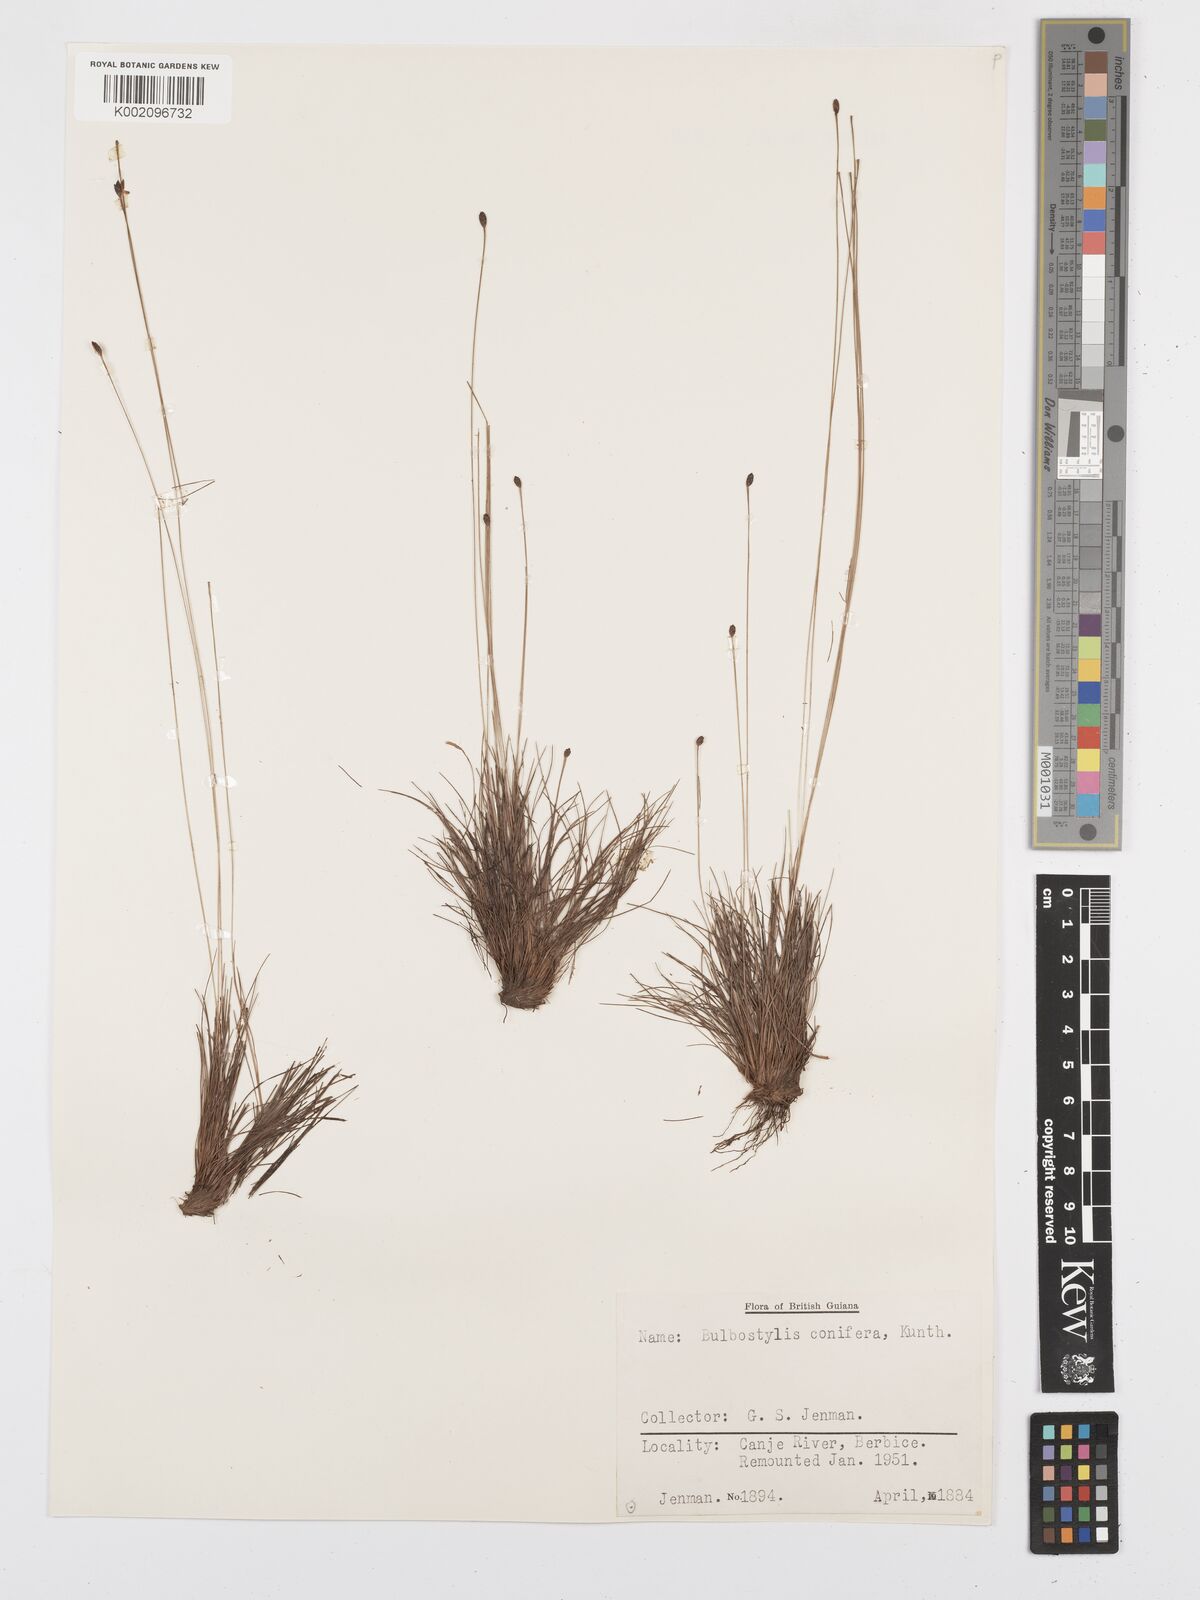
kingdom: Plantae
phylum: Tracheophyta
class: Liliopsida
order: Poales
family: Cyperaceae
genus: Bulbostylis
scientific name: Bulbostylis conifera
